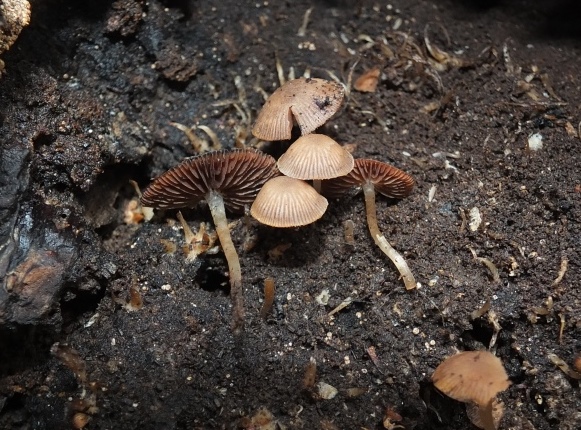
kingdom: Fungi
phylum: Basidiomycota
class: Agaricomycetes
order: Agaricales
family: Psathyrellaceae
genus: Psathyrella
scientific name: Psathyrella pygmaea
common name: dværg-mørkhat
